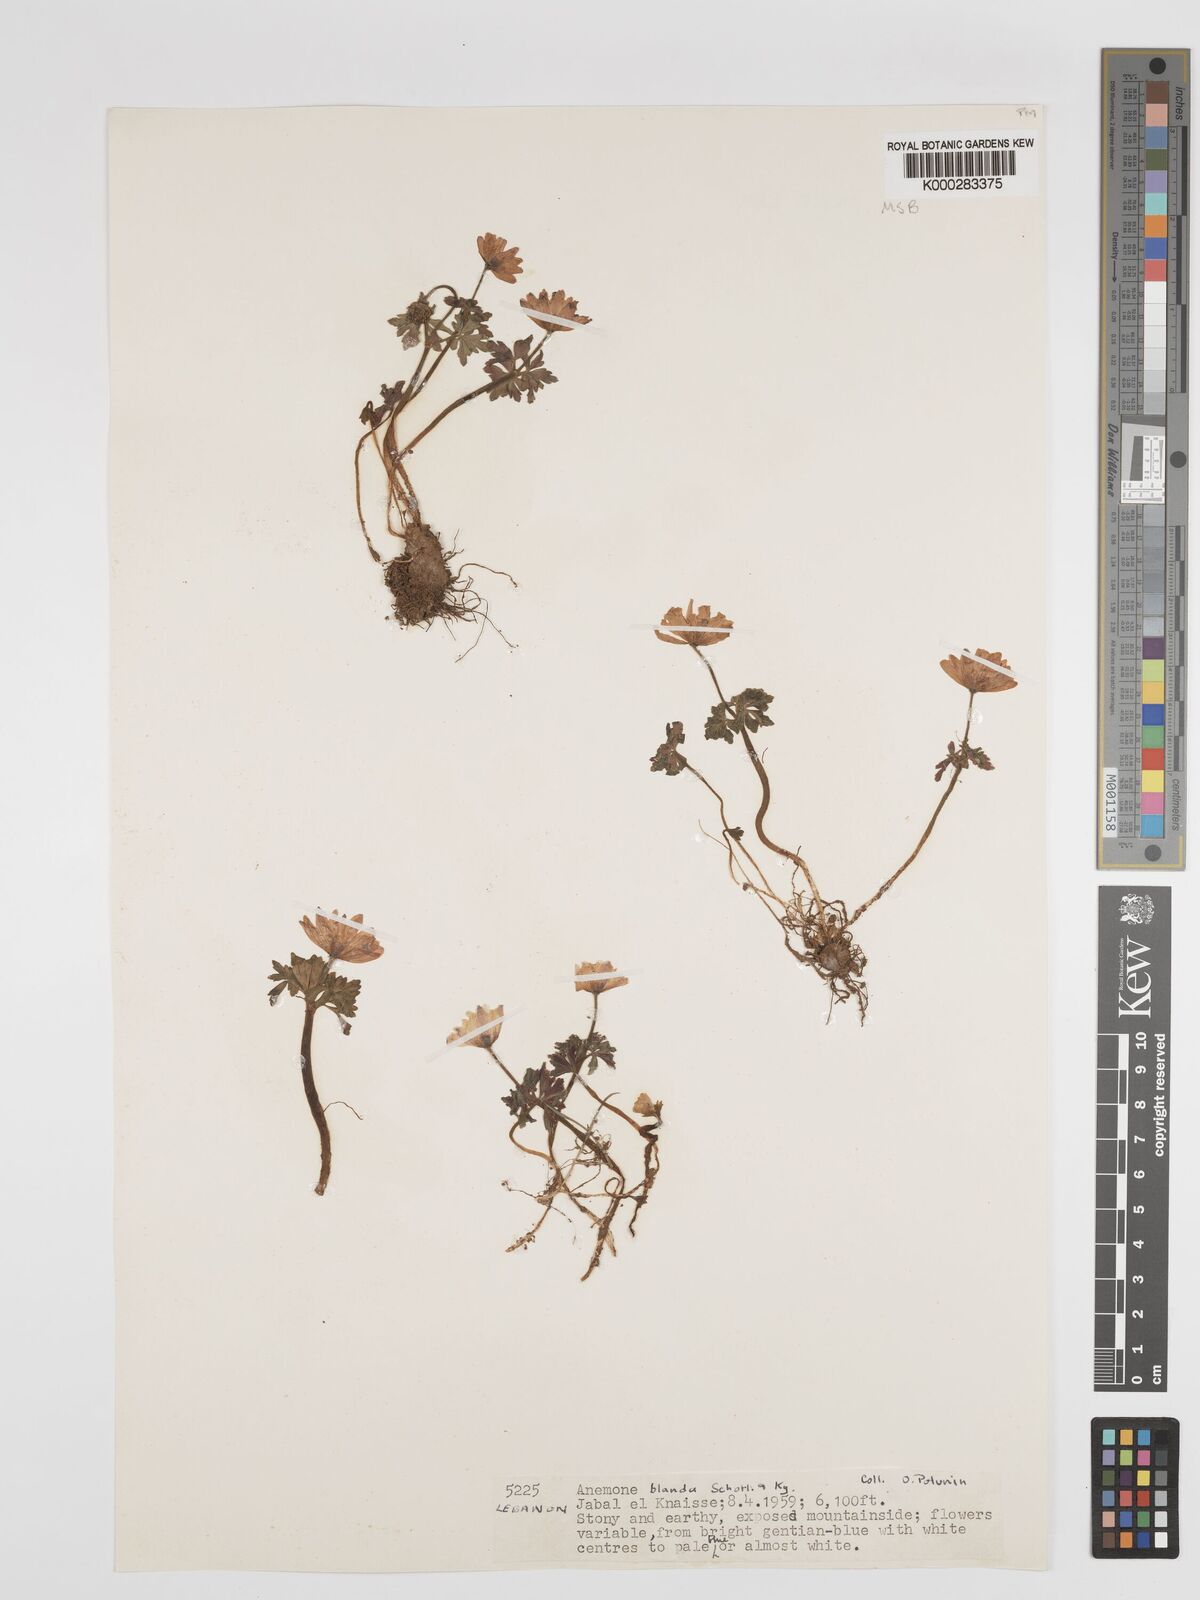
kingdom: Plantae
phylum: Tracheophyta
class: Magnoliopsida
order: Ranunculales
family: Ranunculaceae
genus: Anemone
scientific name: Anemone blanda
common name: Balkan anemone
